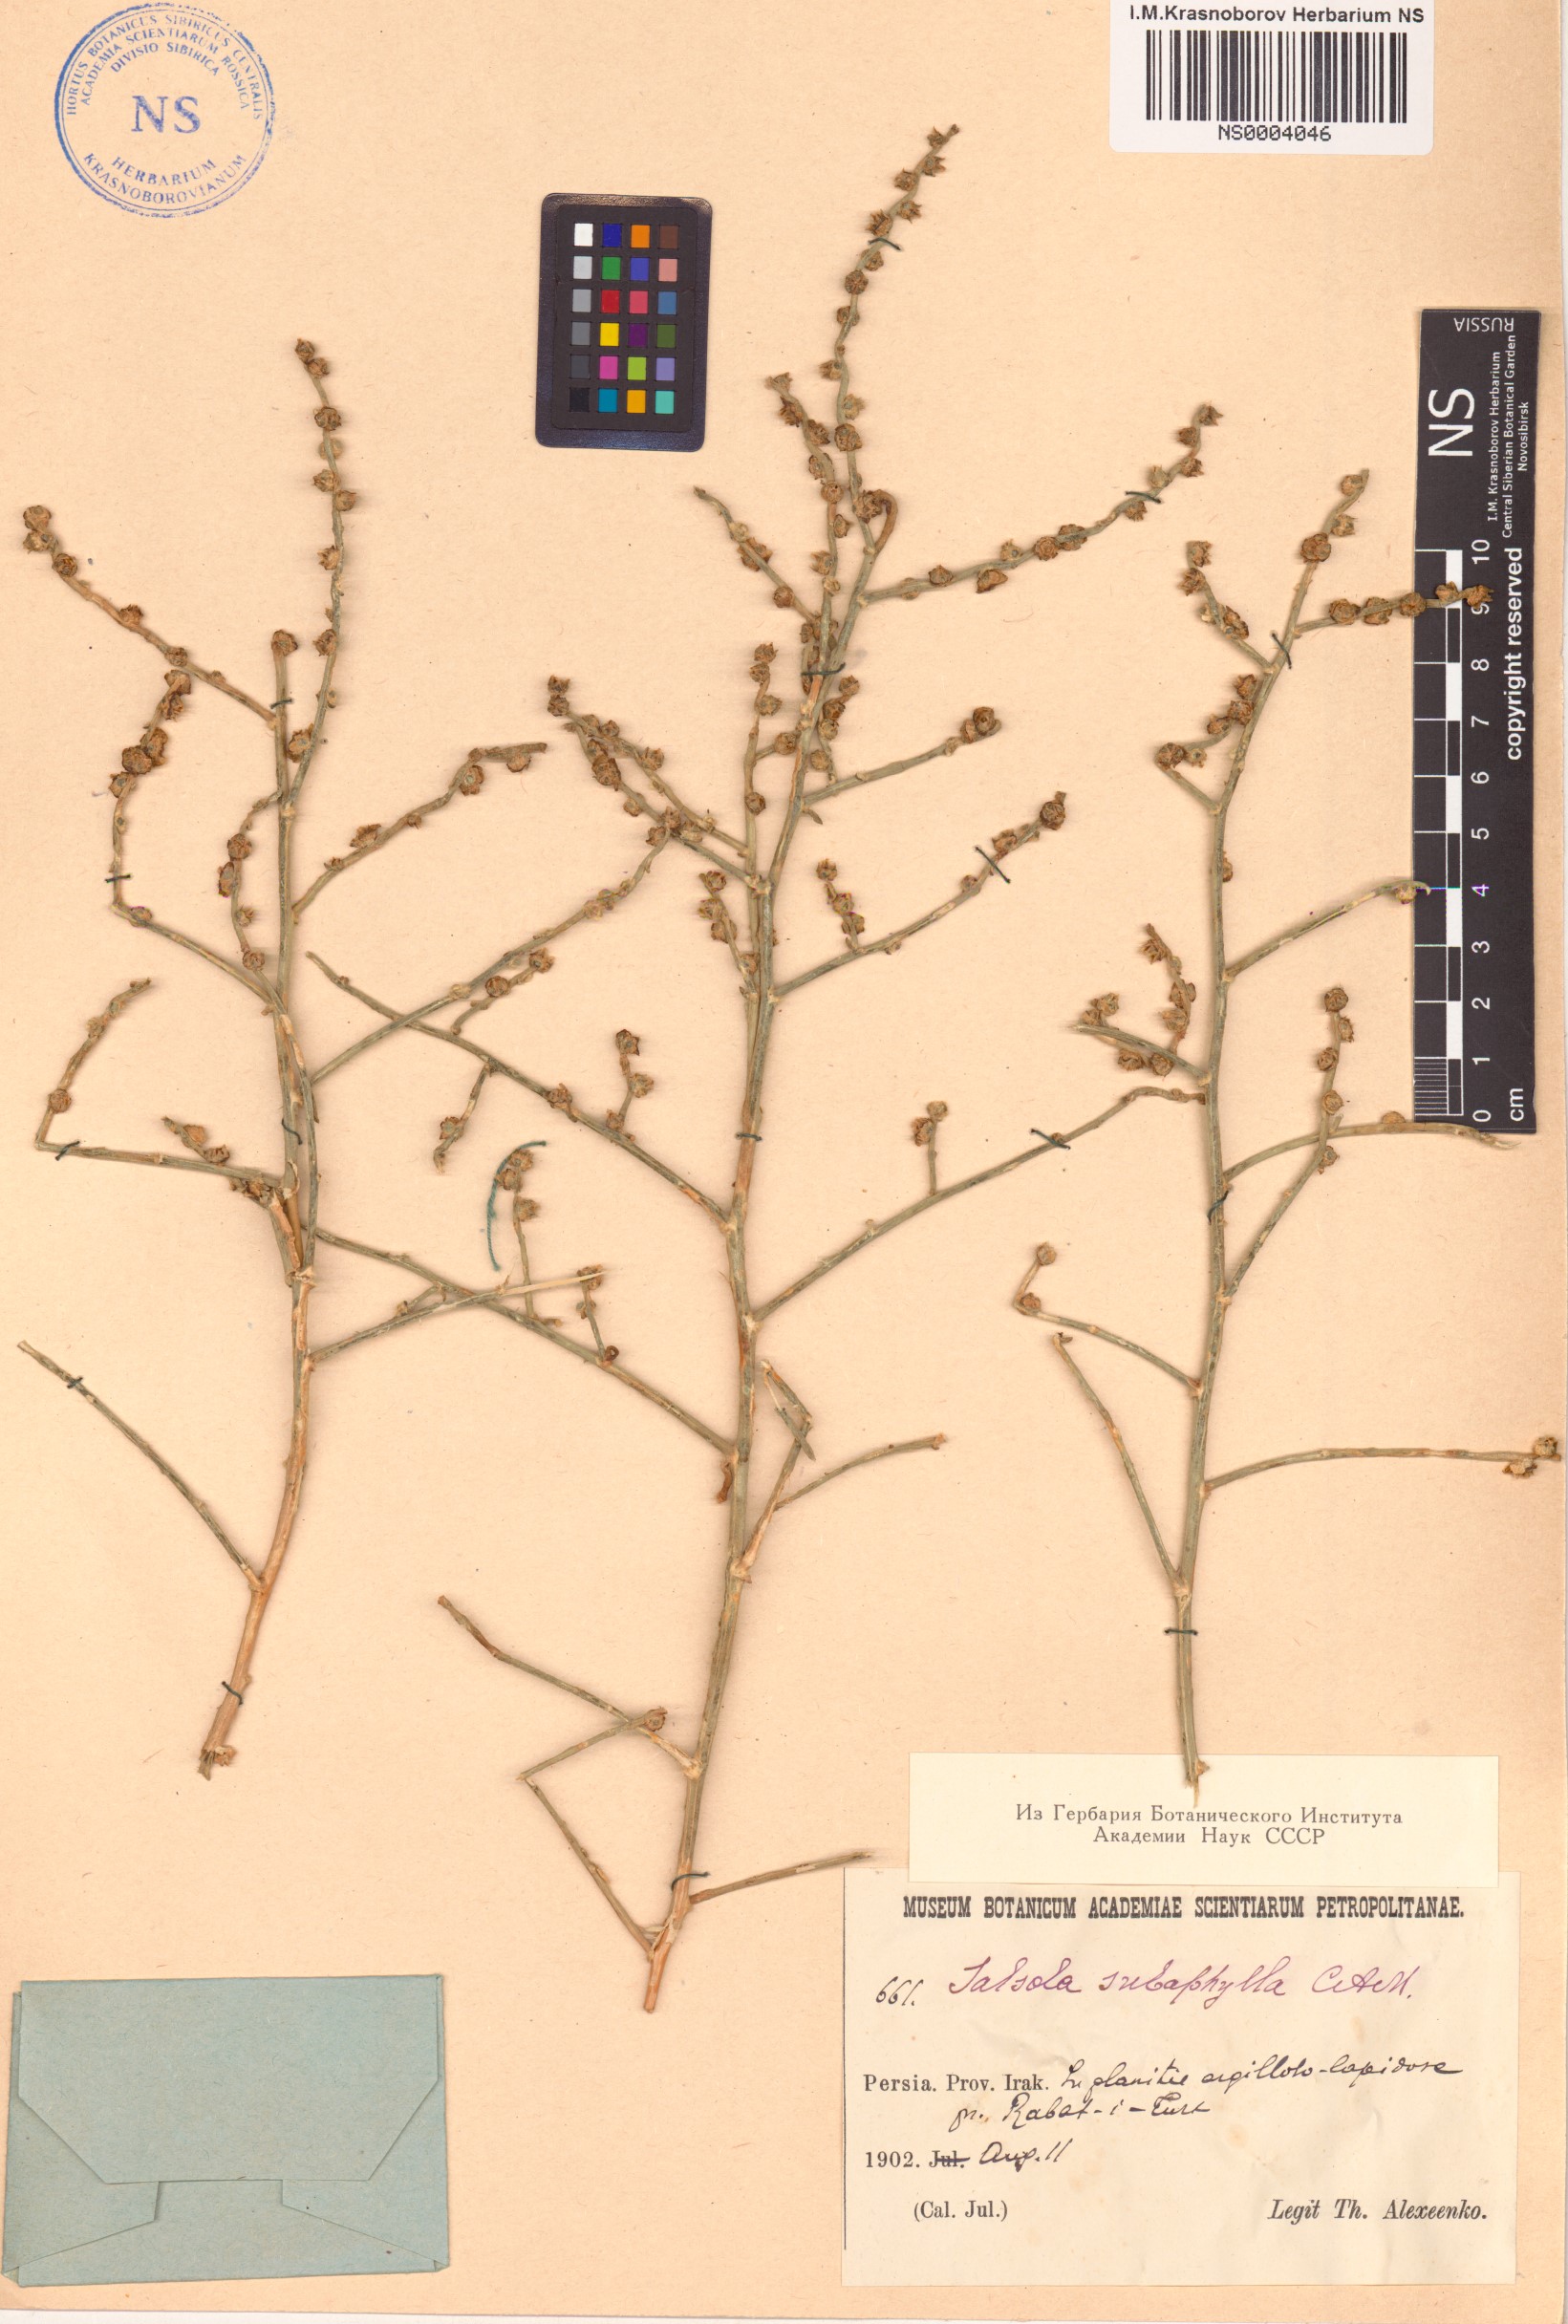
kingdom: Plantae
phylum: Tracheophyta
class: Magnoliopsida
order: Caryophyllales
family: Amaranthaceae
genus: Halothamnus
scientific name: Halothamnus subaphyllus
